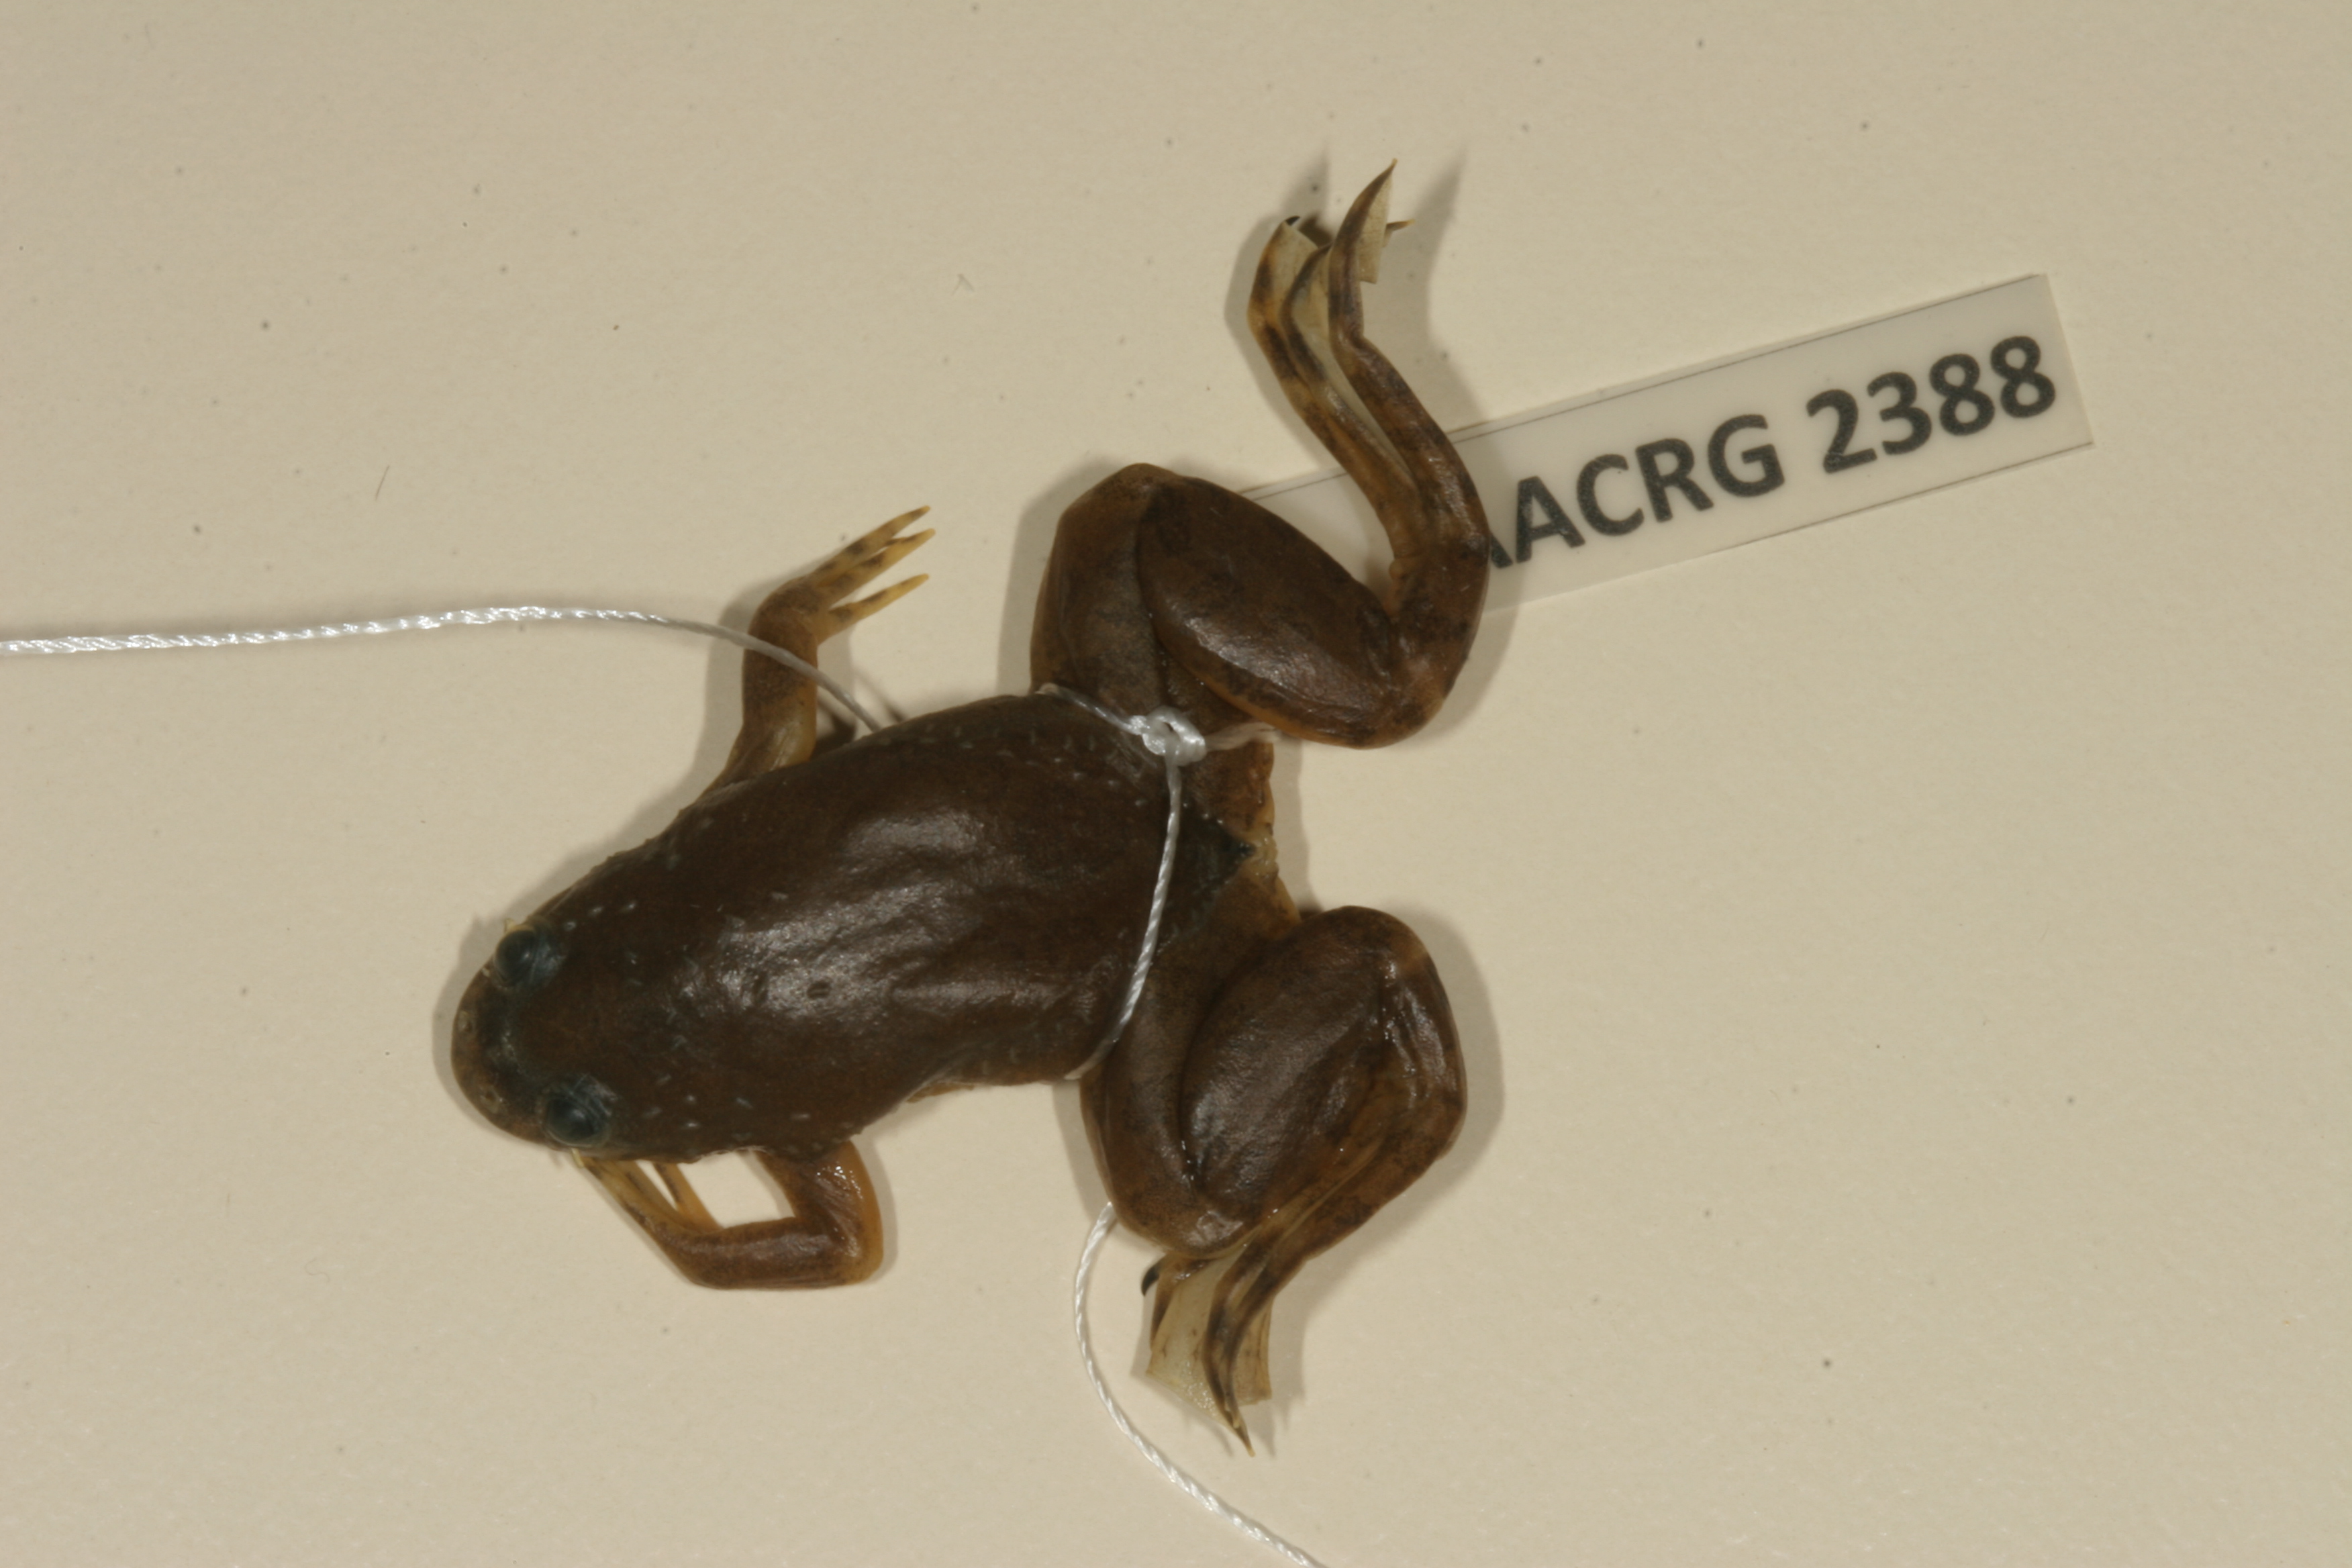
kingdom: Animalia
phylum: Chordata
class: Amphibia
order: Anura
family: Pipidae
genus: Xenopus
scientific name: Xenopus muelleri
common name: Muller's clawed frog
